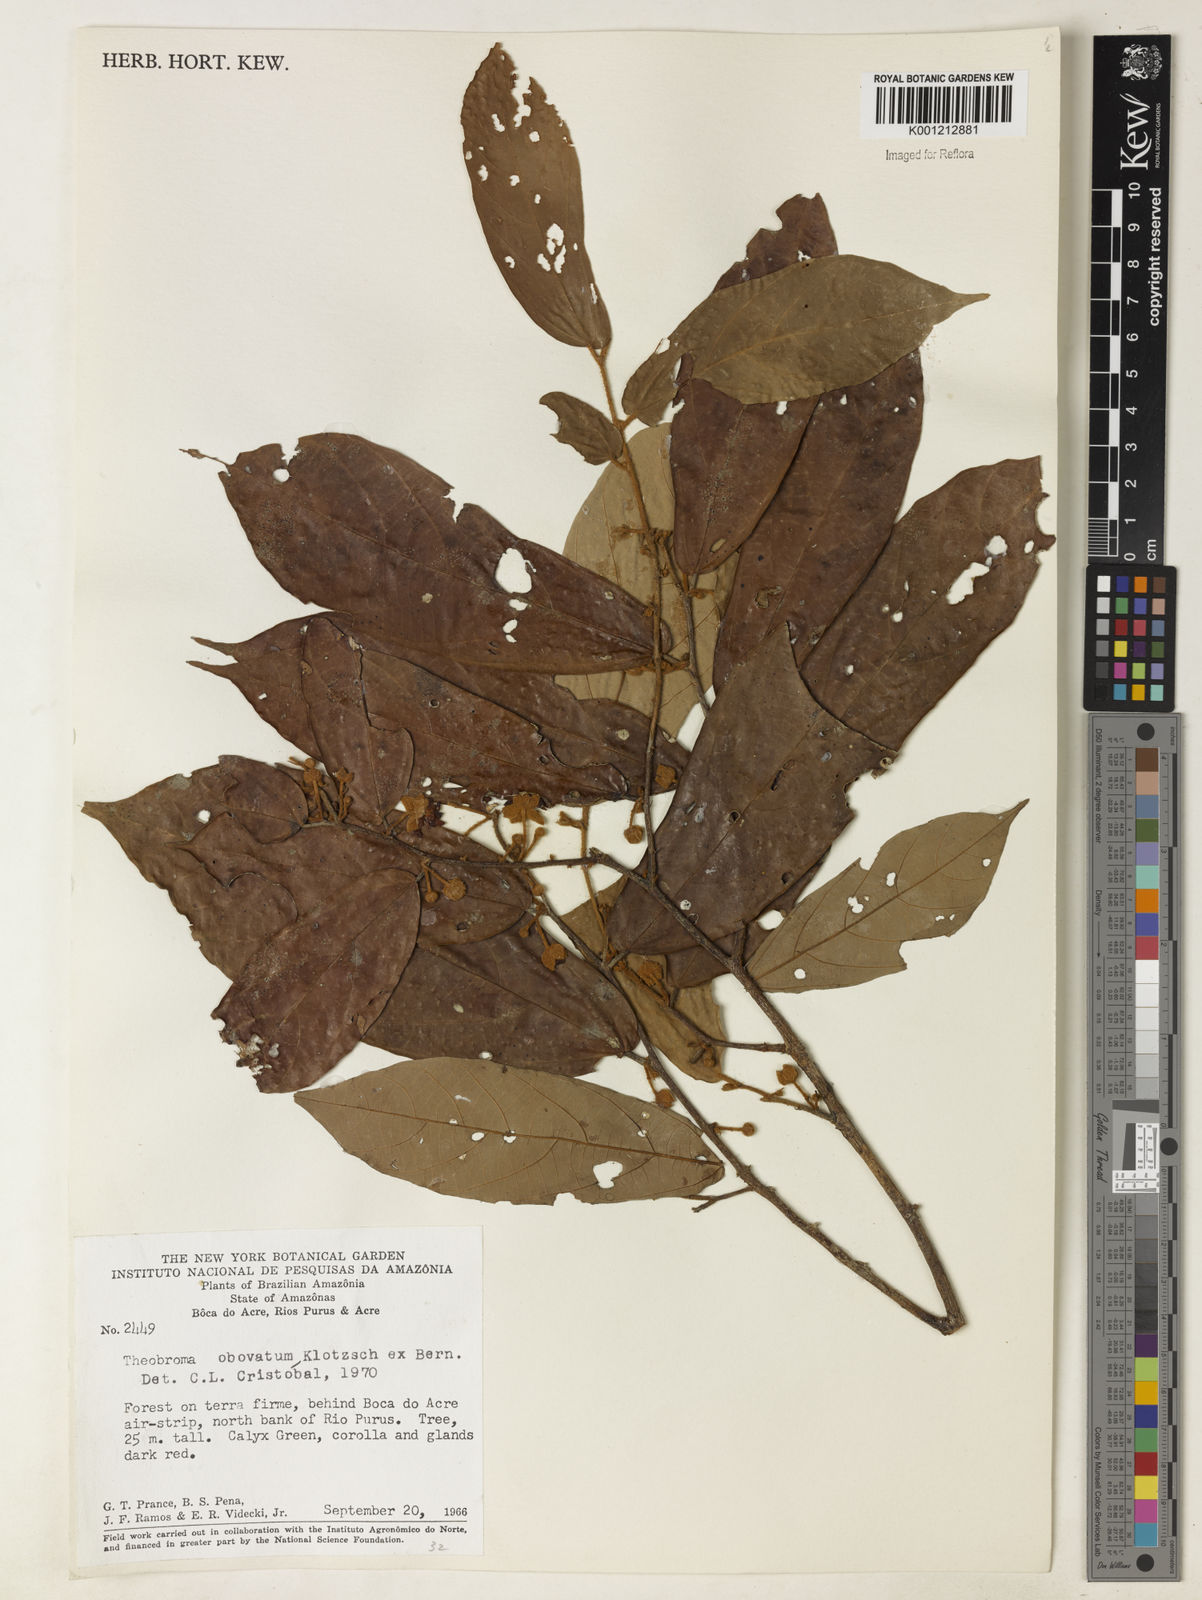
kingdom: Plantae
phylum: Tracheophyta
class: Magnoliopsida
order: Malvales
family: Malvaceae
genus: Theobroma
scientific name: Theobroma obovatum
